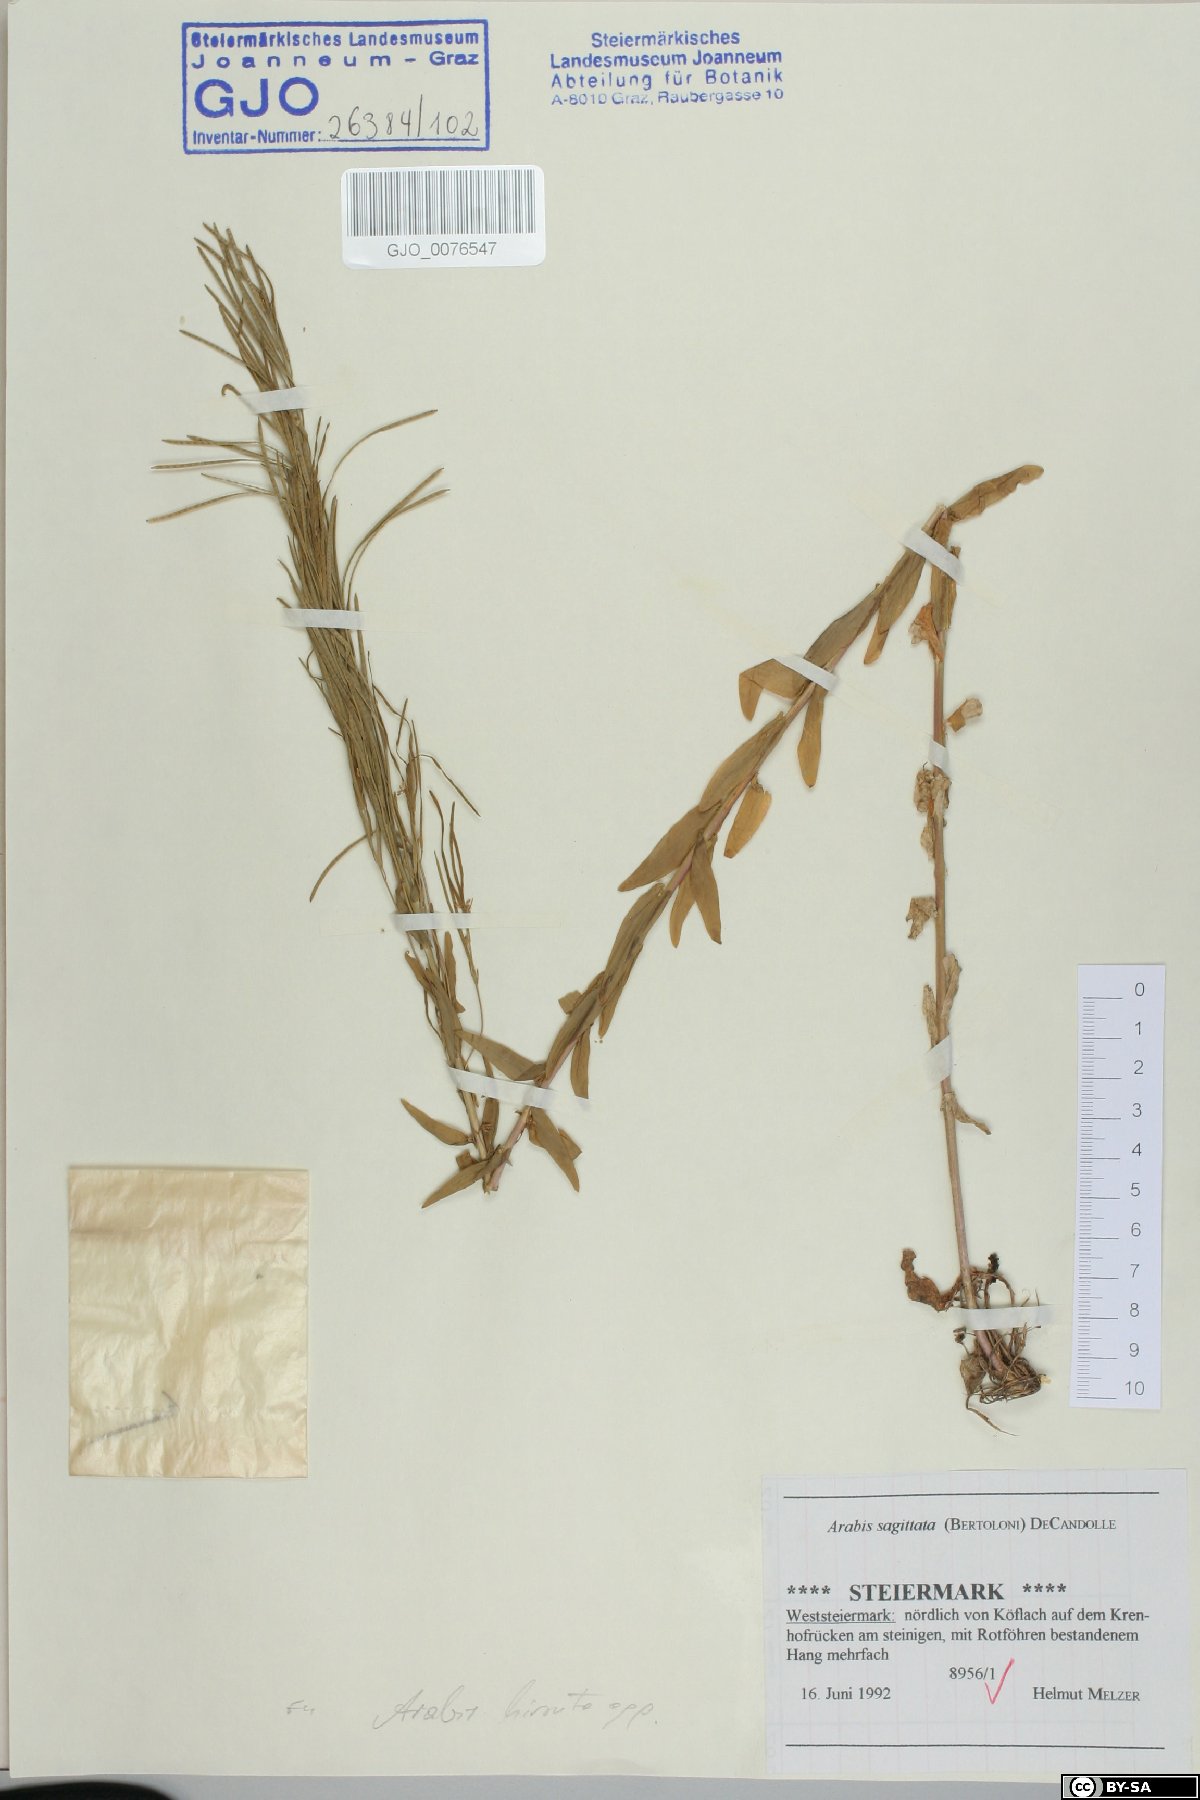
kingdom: Plantae
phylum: Tracheophyta
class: Magnoliopsida
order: Brassicales
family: Brassicaceae
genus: Arabis
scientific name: Arabis sagittata
